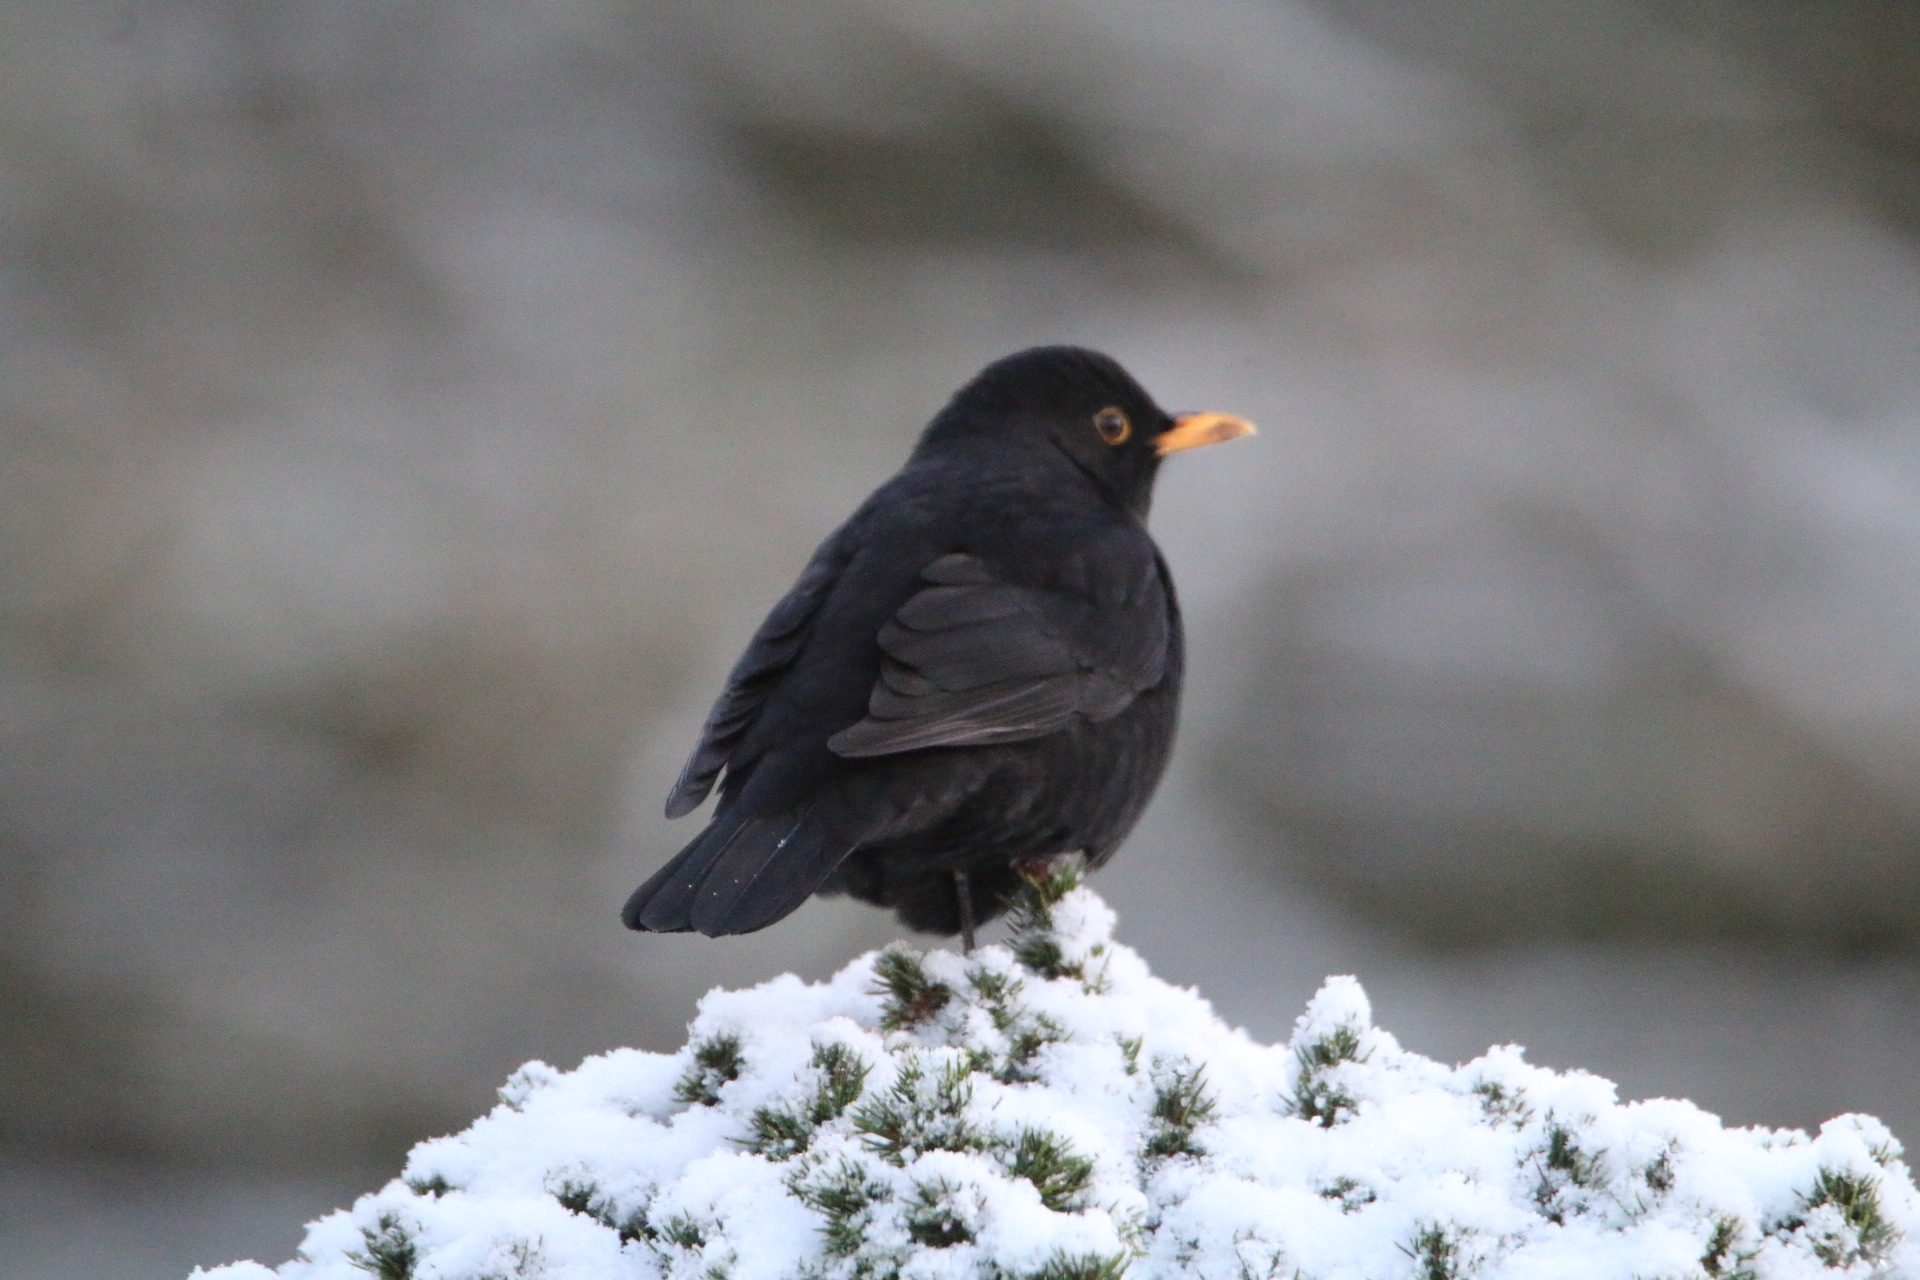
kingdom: Animalia
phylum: Chordata
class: Aves
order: Passeriformes
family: Turdidae
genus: Turdus
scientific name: Turdus merula
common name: Solsort
